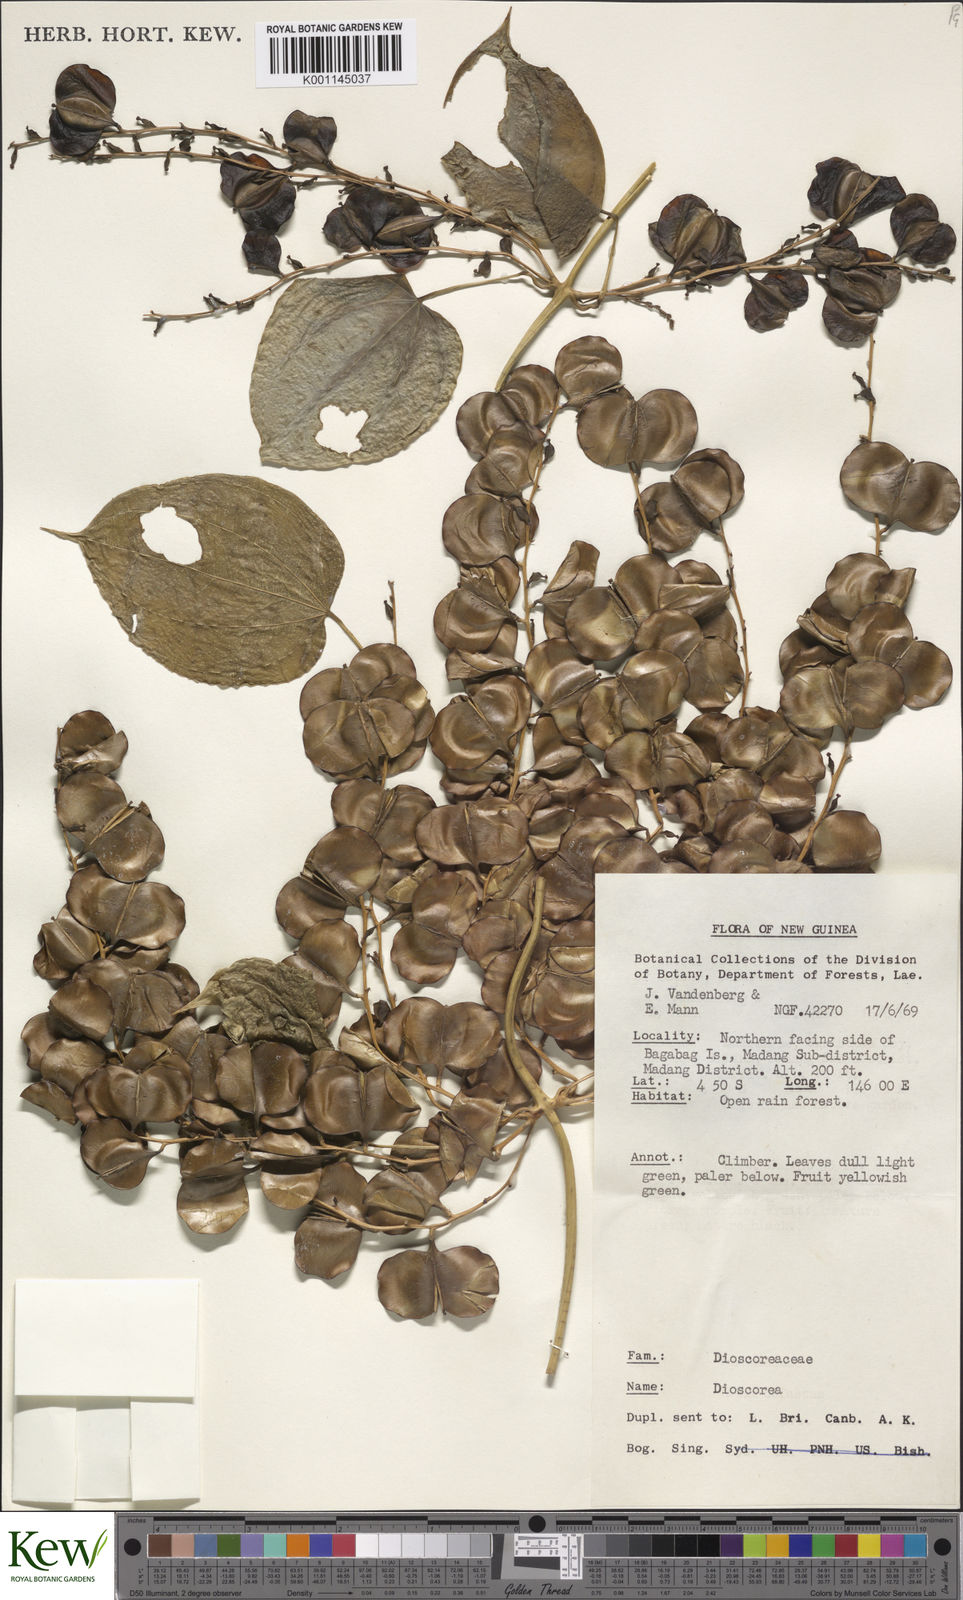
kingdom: Plantae
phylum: Tracheophyta
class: Liliopsida
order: Dioscoreales
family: Dioscoreaceae
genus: Dioscorea
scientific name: Dioscorea
